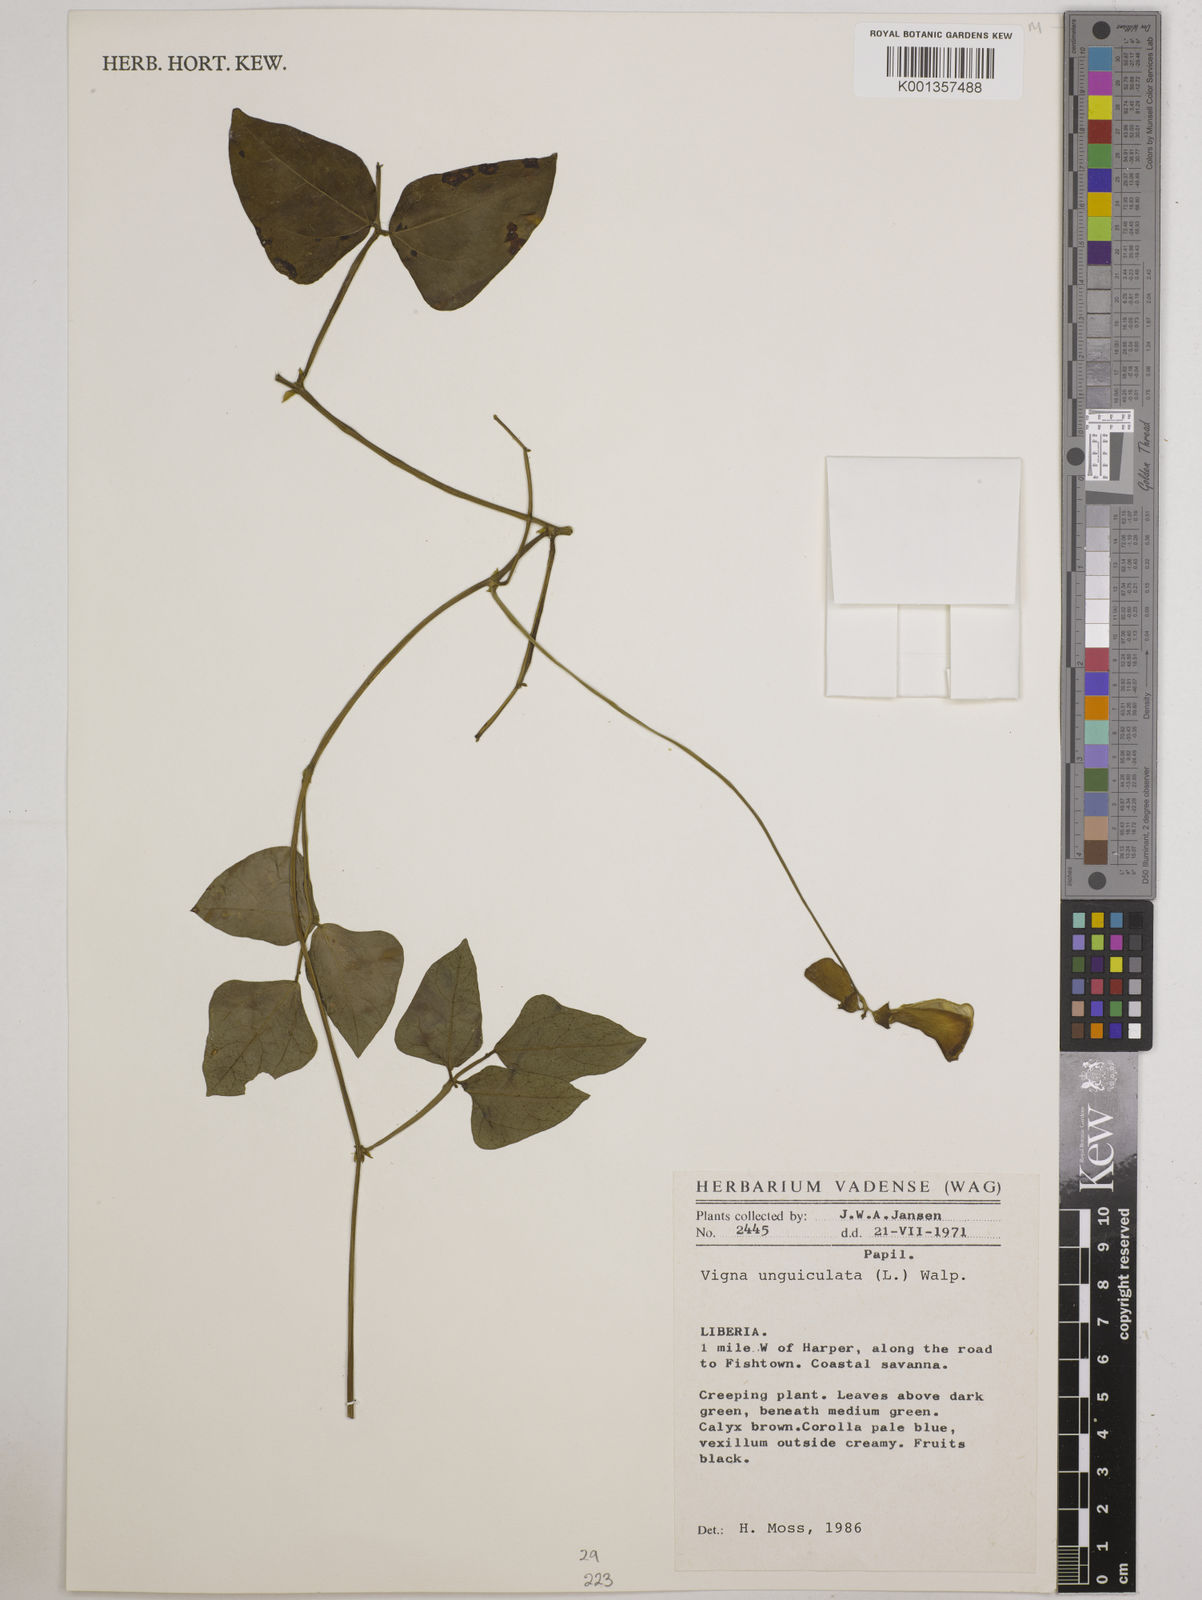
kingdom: Plantae
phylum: Tracheophyta
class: Magnoliopsida
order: Fabales
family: Fabaceae
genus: Vigna
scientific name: Vigna unguiculata
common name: Cowpea
